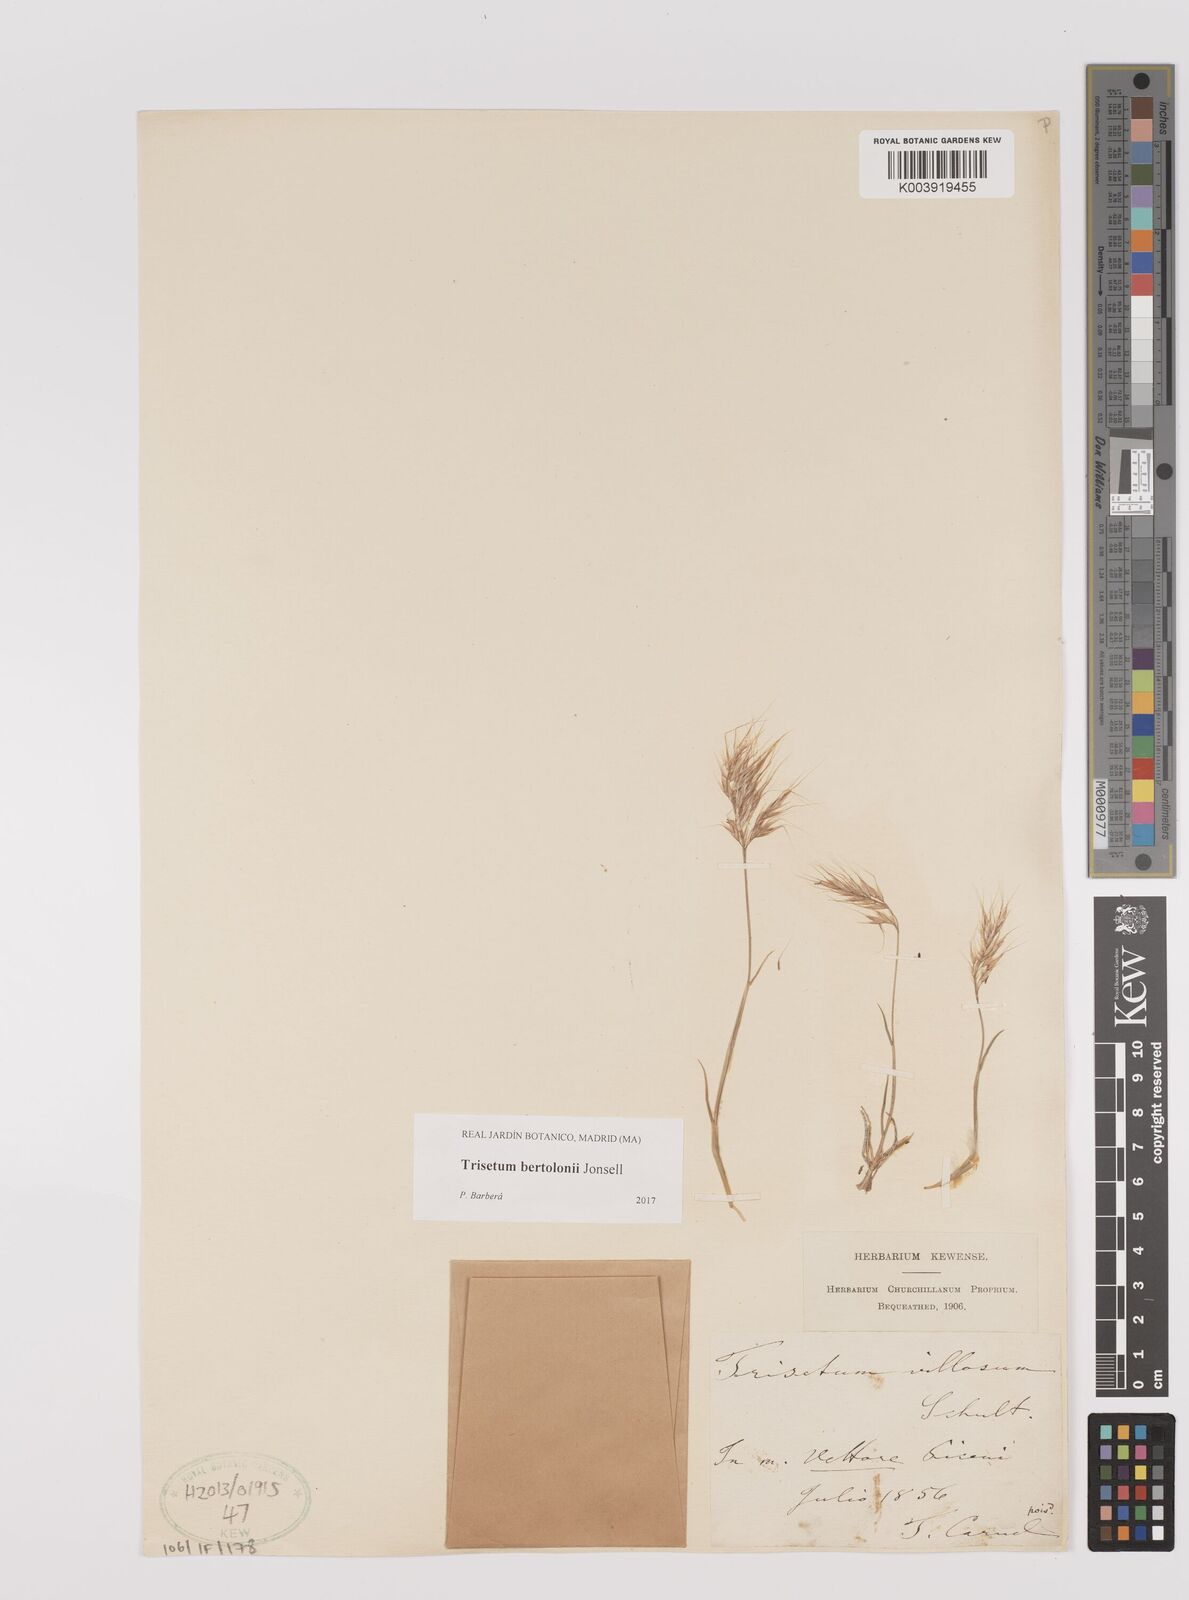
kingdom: Plantae
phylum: Tracheophyta
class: Liliopsida
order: Poales
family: Poaceae
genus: Trisetum
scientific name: Trisetum bertolonii
